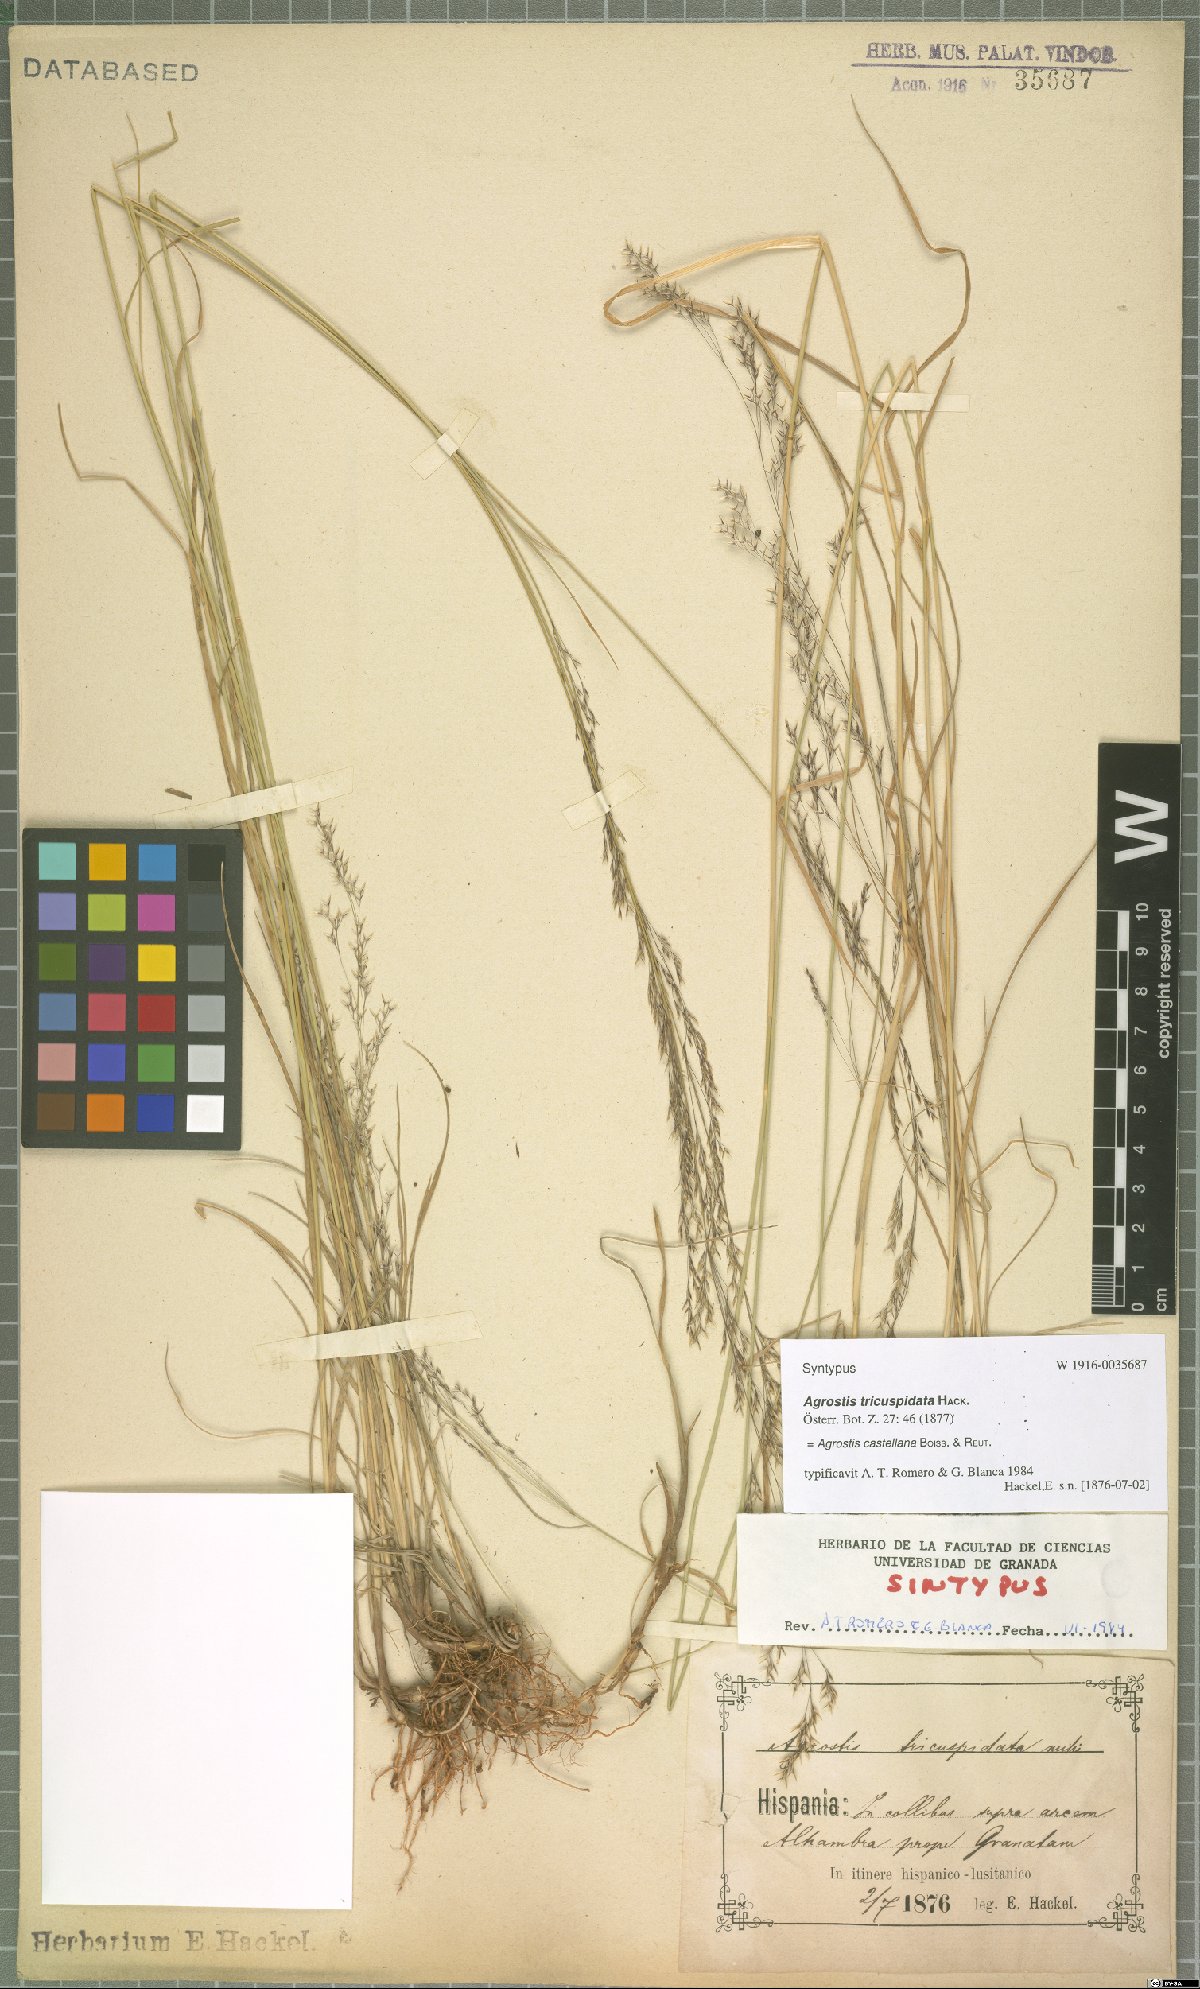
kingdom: Plantae
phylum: Tracheophyta
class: Liliopsida
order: Poales
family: Poaceae
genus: Agrostis
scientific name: Agrostis castellana
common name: Highland bent
